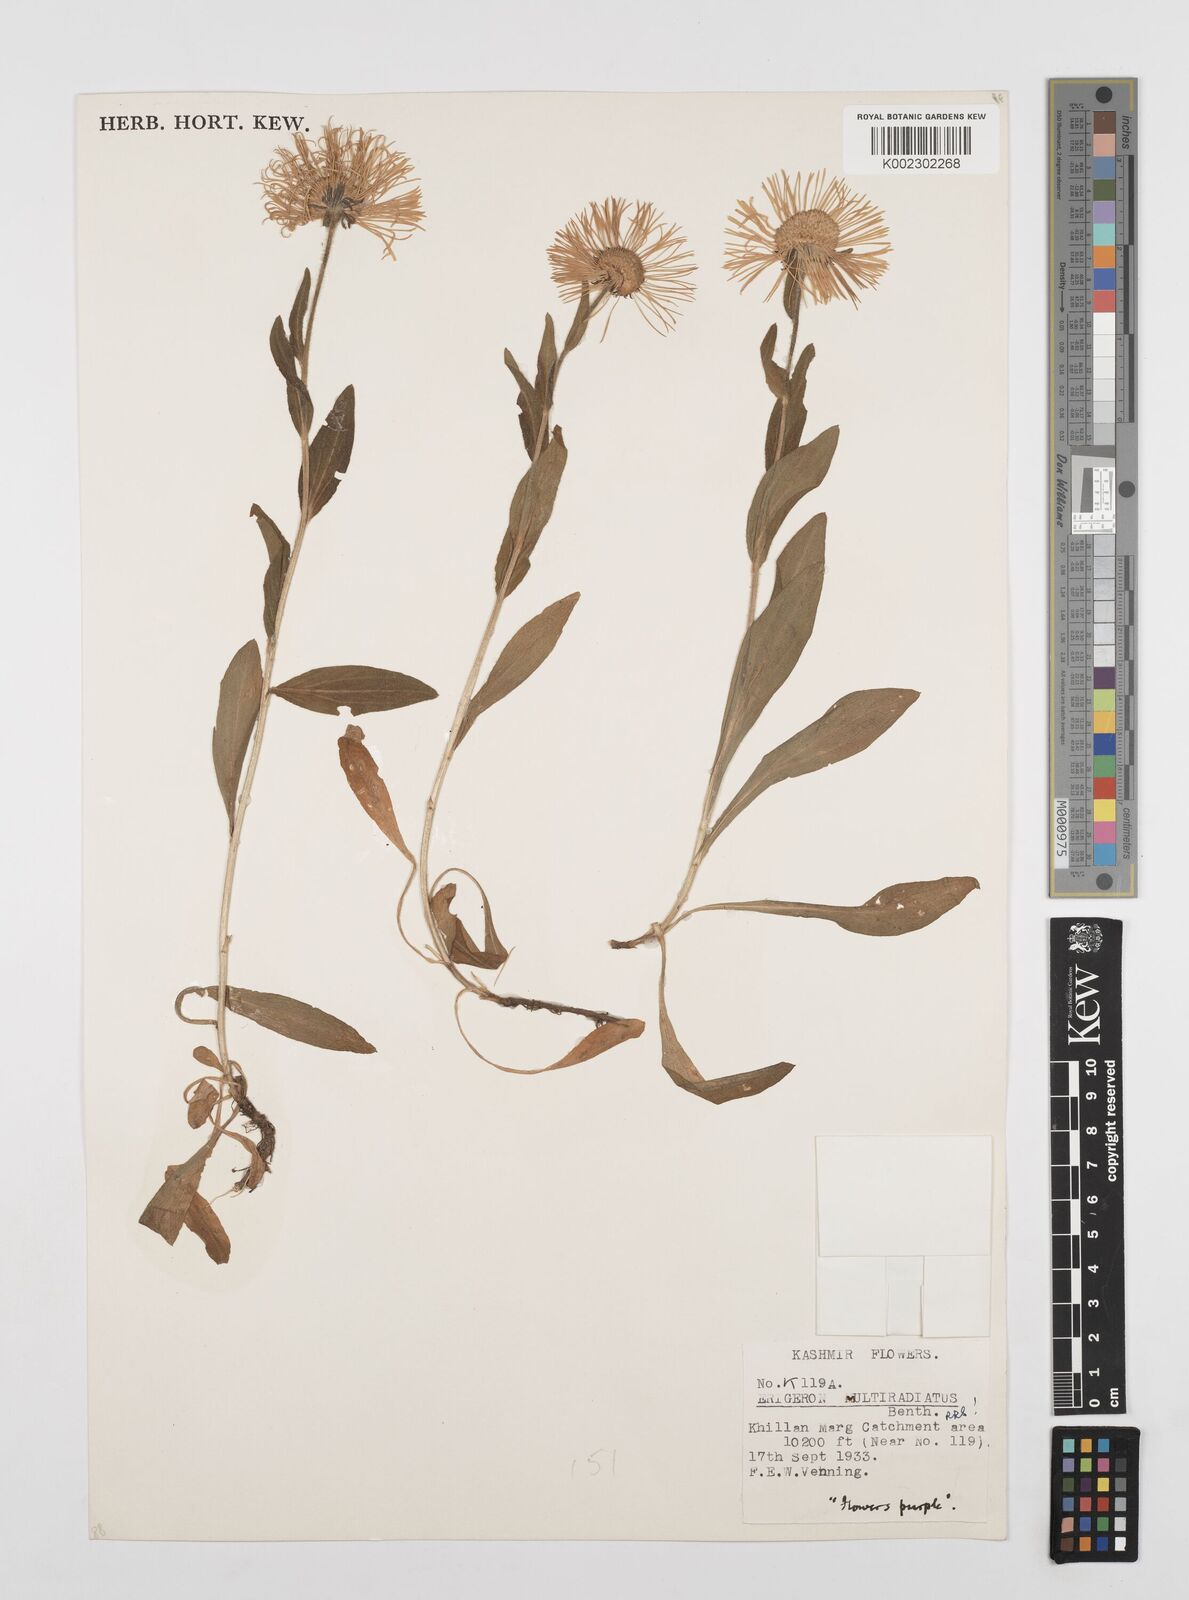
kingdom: Plantae
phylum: Tracheophyta
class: Magnoliopsida
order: Asterales
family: Asteraceae
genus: Erigeron
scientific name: Erigeron multiradiatus
